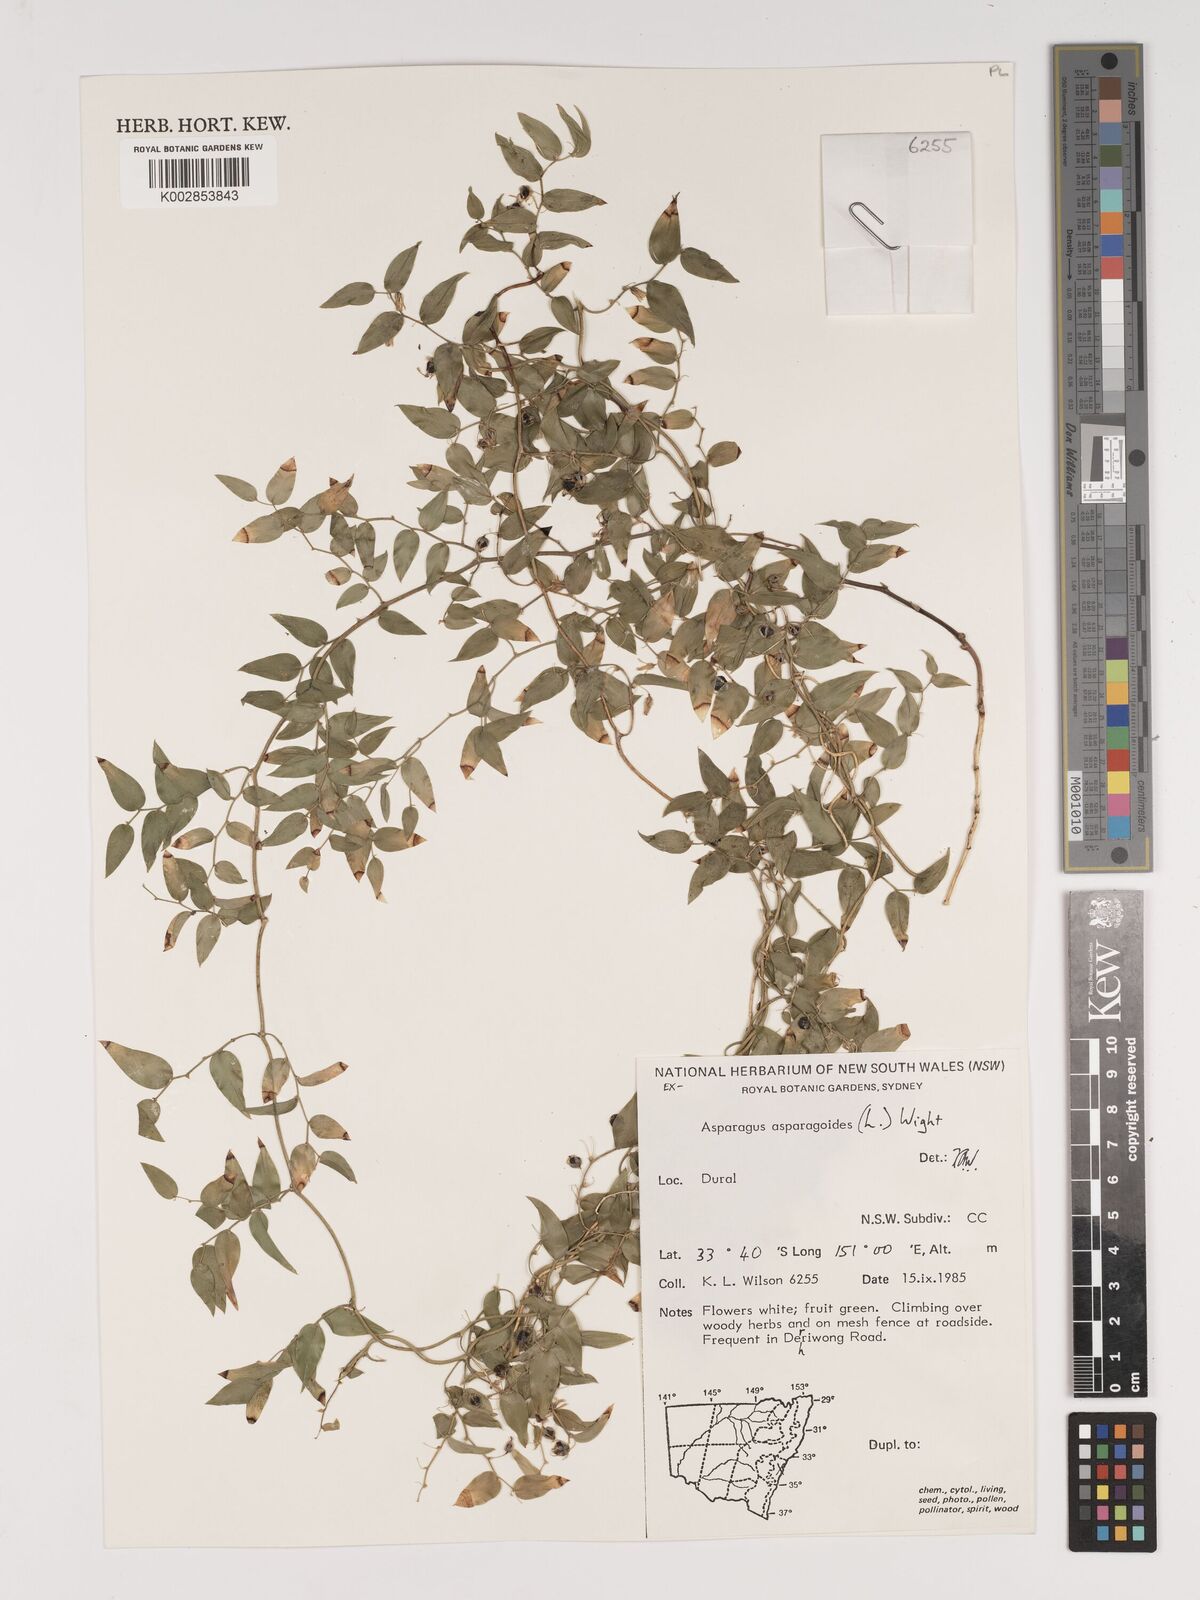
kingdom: Plantae
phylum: Tracheophyta
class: Liliopsida
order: Asparagales
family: Asparagaceae
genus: Asparagus
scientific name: Asparagus asparagoides
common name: African asparagus fern
